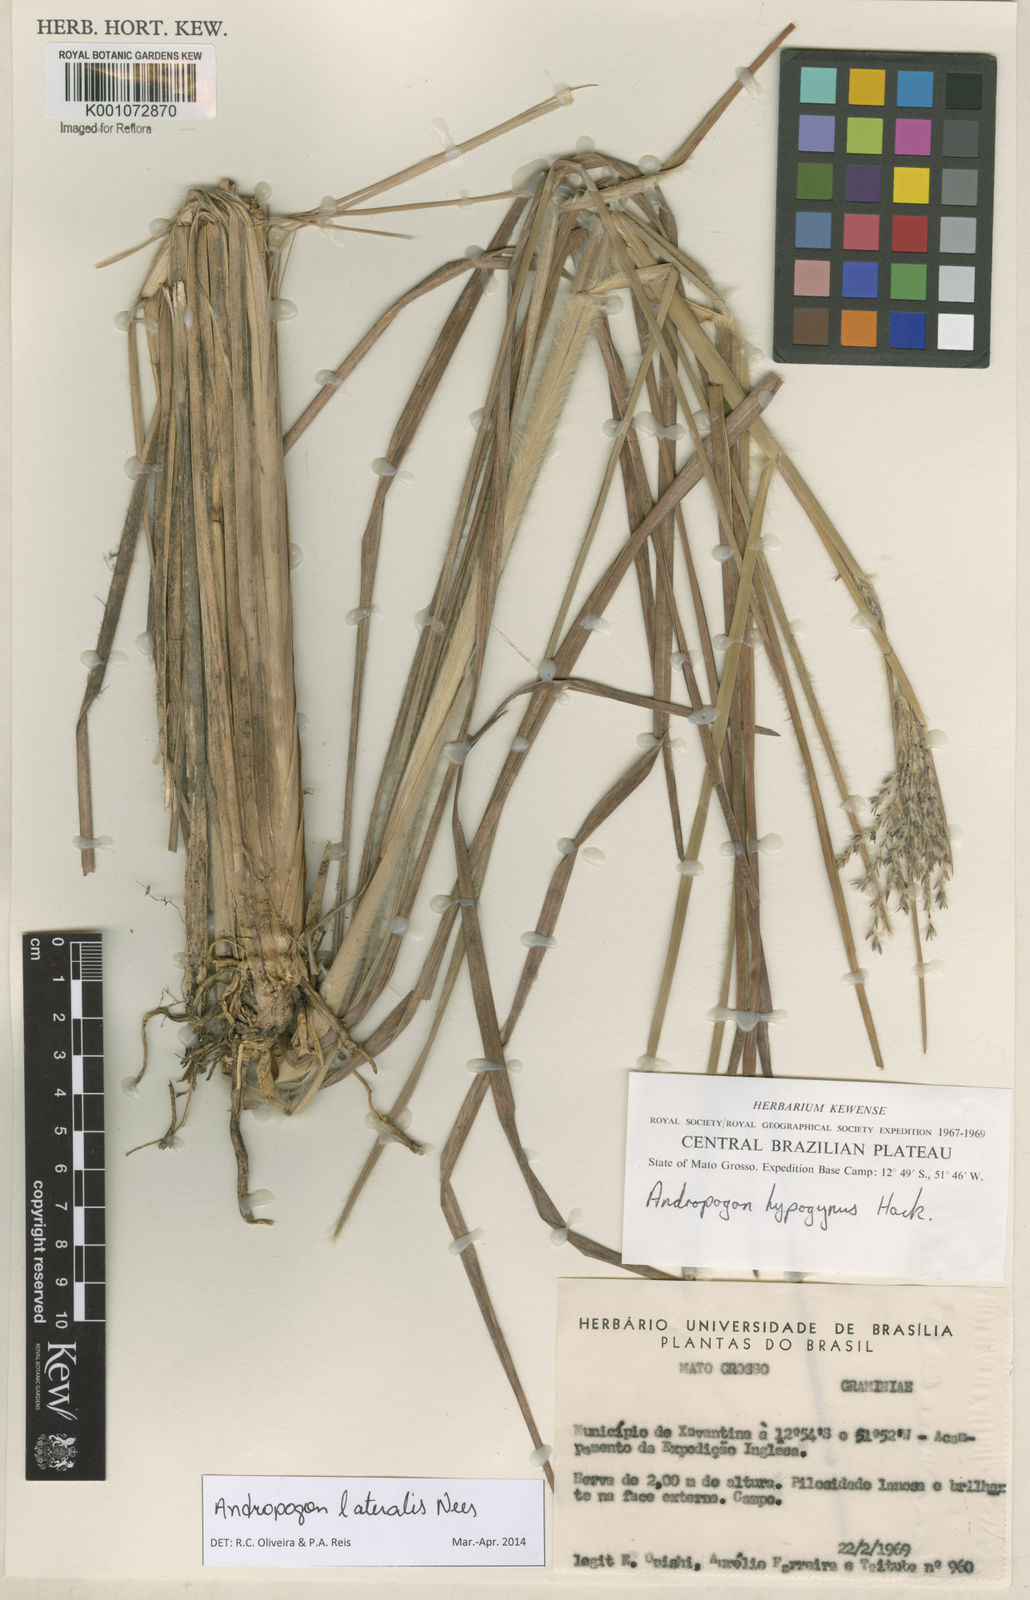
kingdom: Plantae
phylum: Tracheophyta
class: Liliopsida
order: Poales
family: Poaceae
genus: Andropogon
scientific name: Andropogon lateralis
